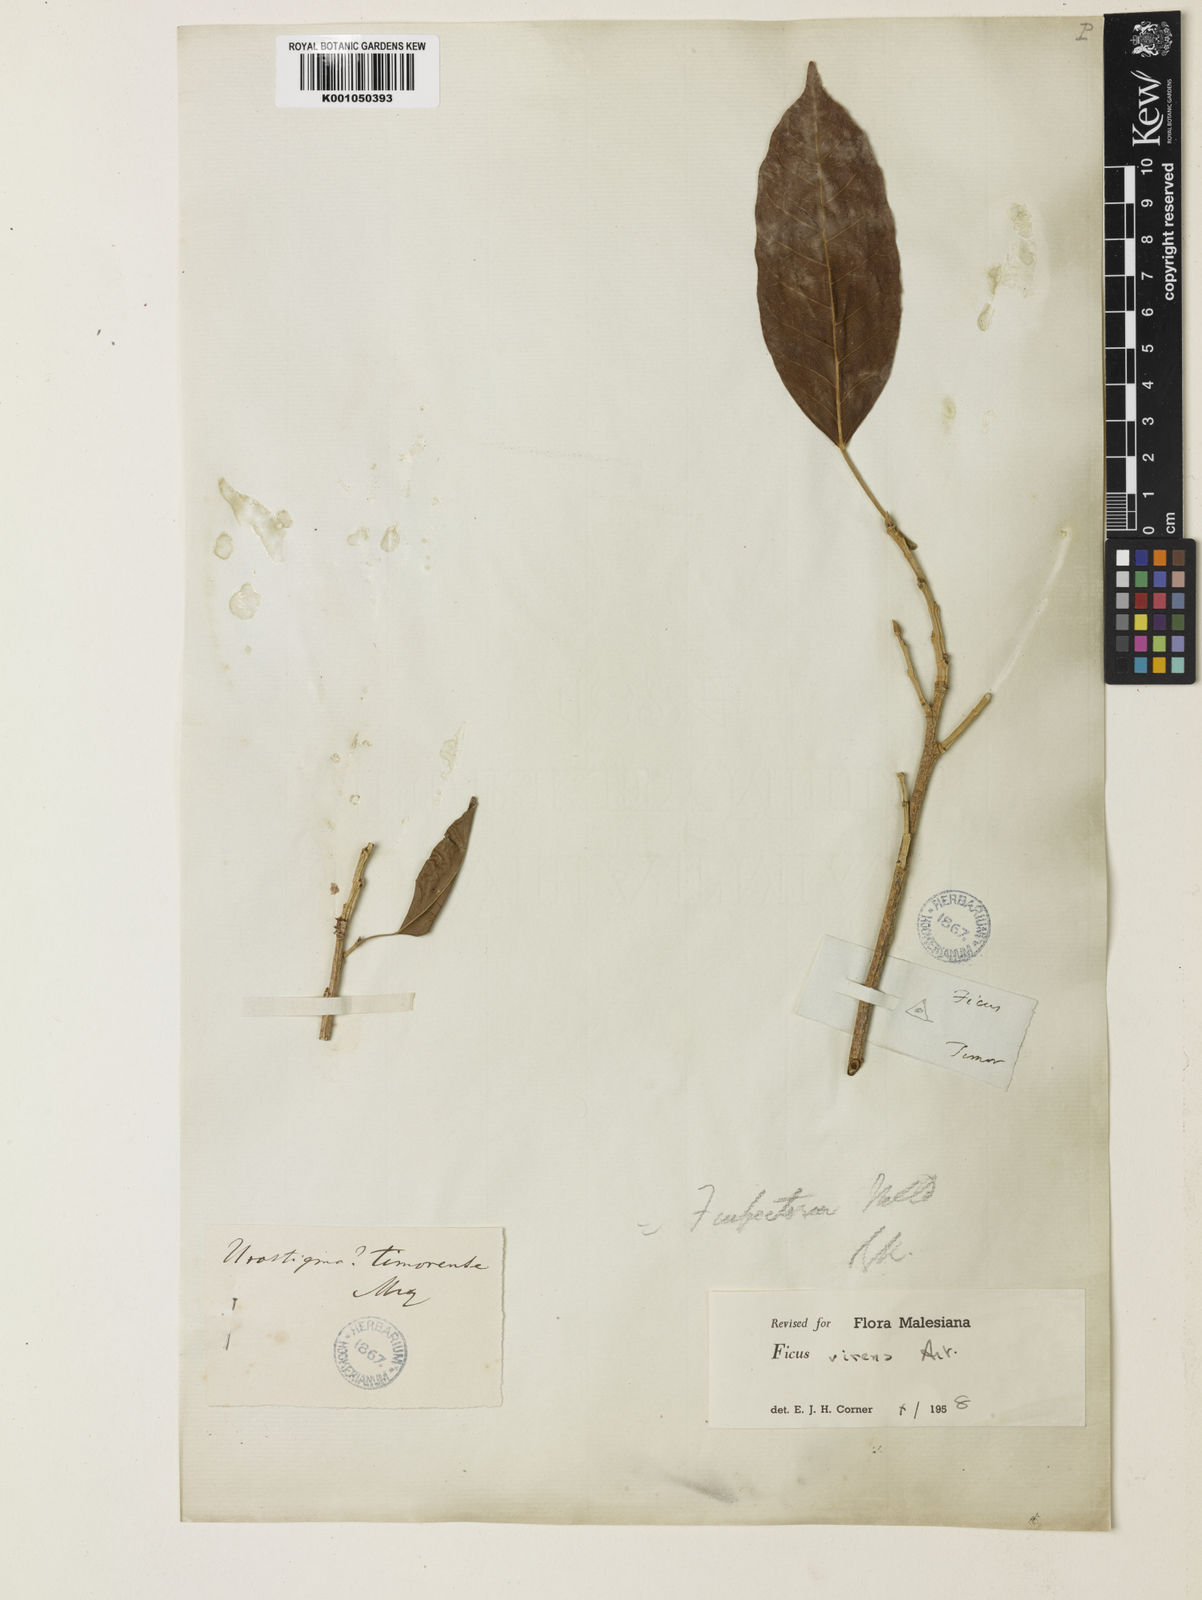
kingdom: Plantae
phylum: Tracheophyta
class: Magnoliopsida
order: Rosales
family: Moraceae
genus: Ficus
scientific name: Ficus virens
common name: Spotted fig
